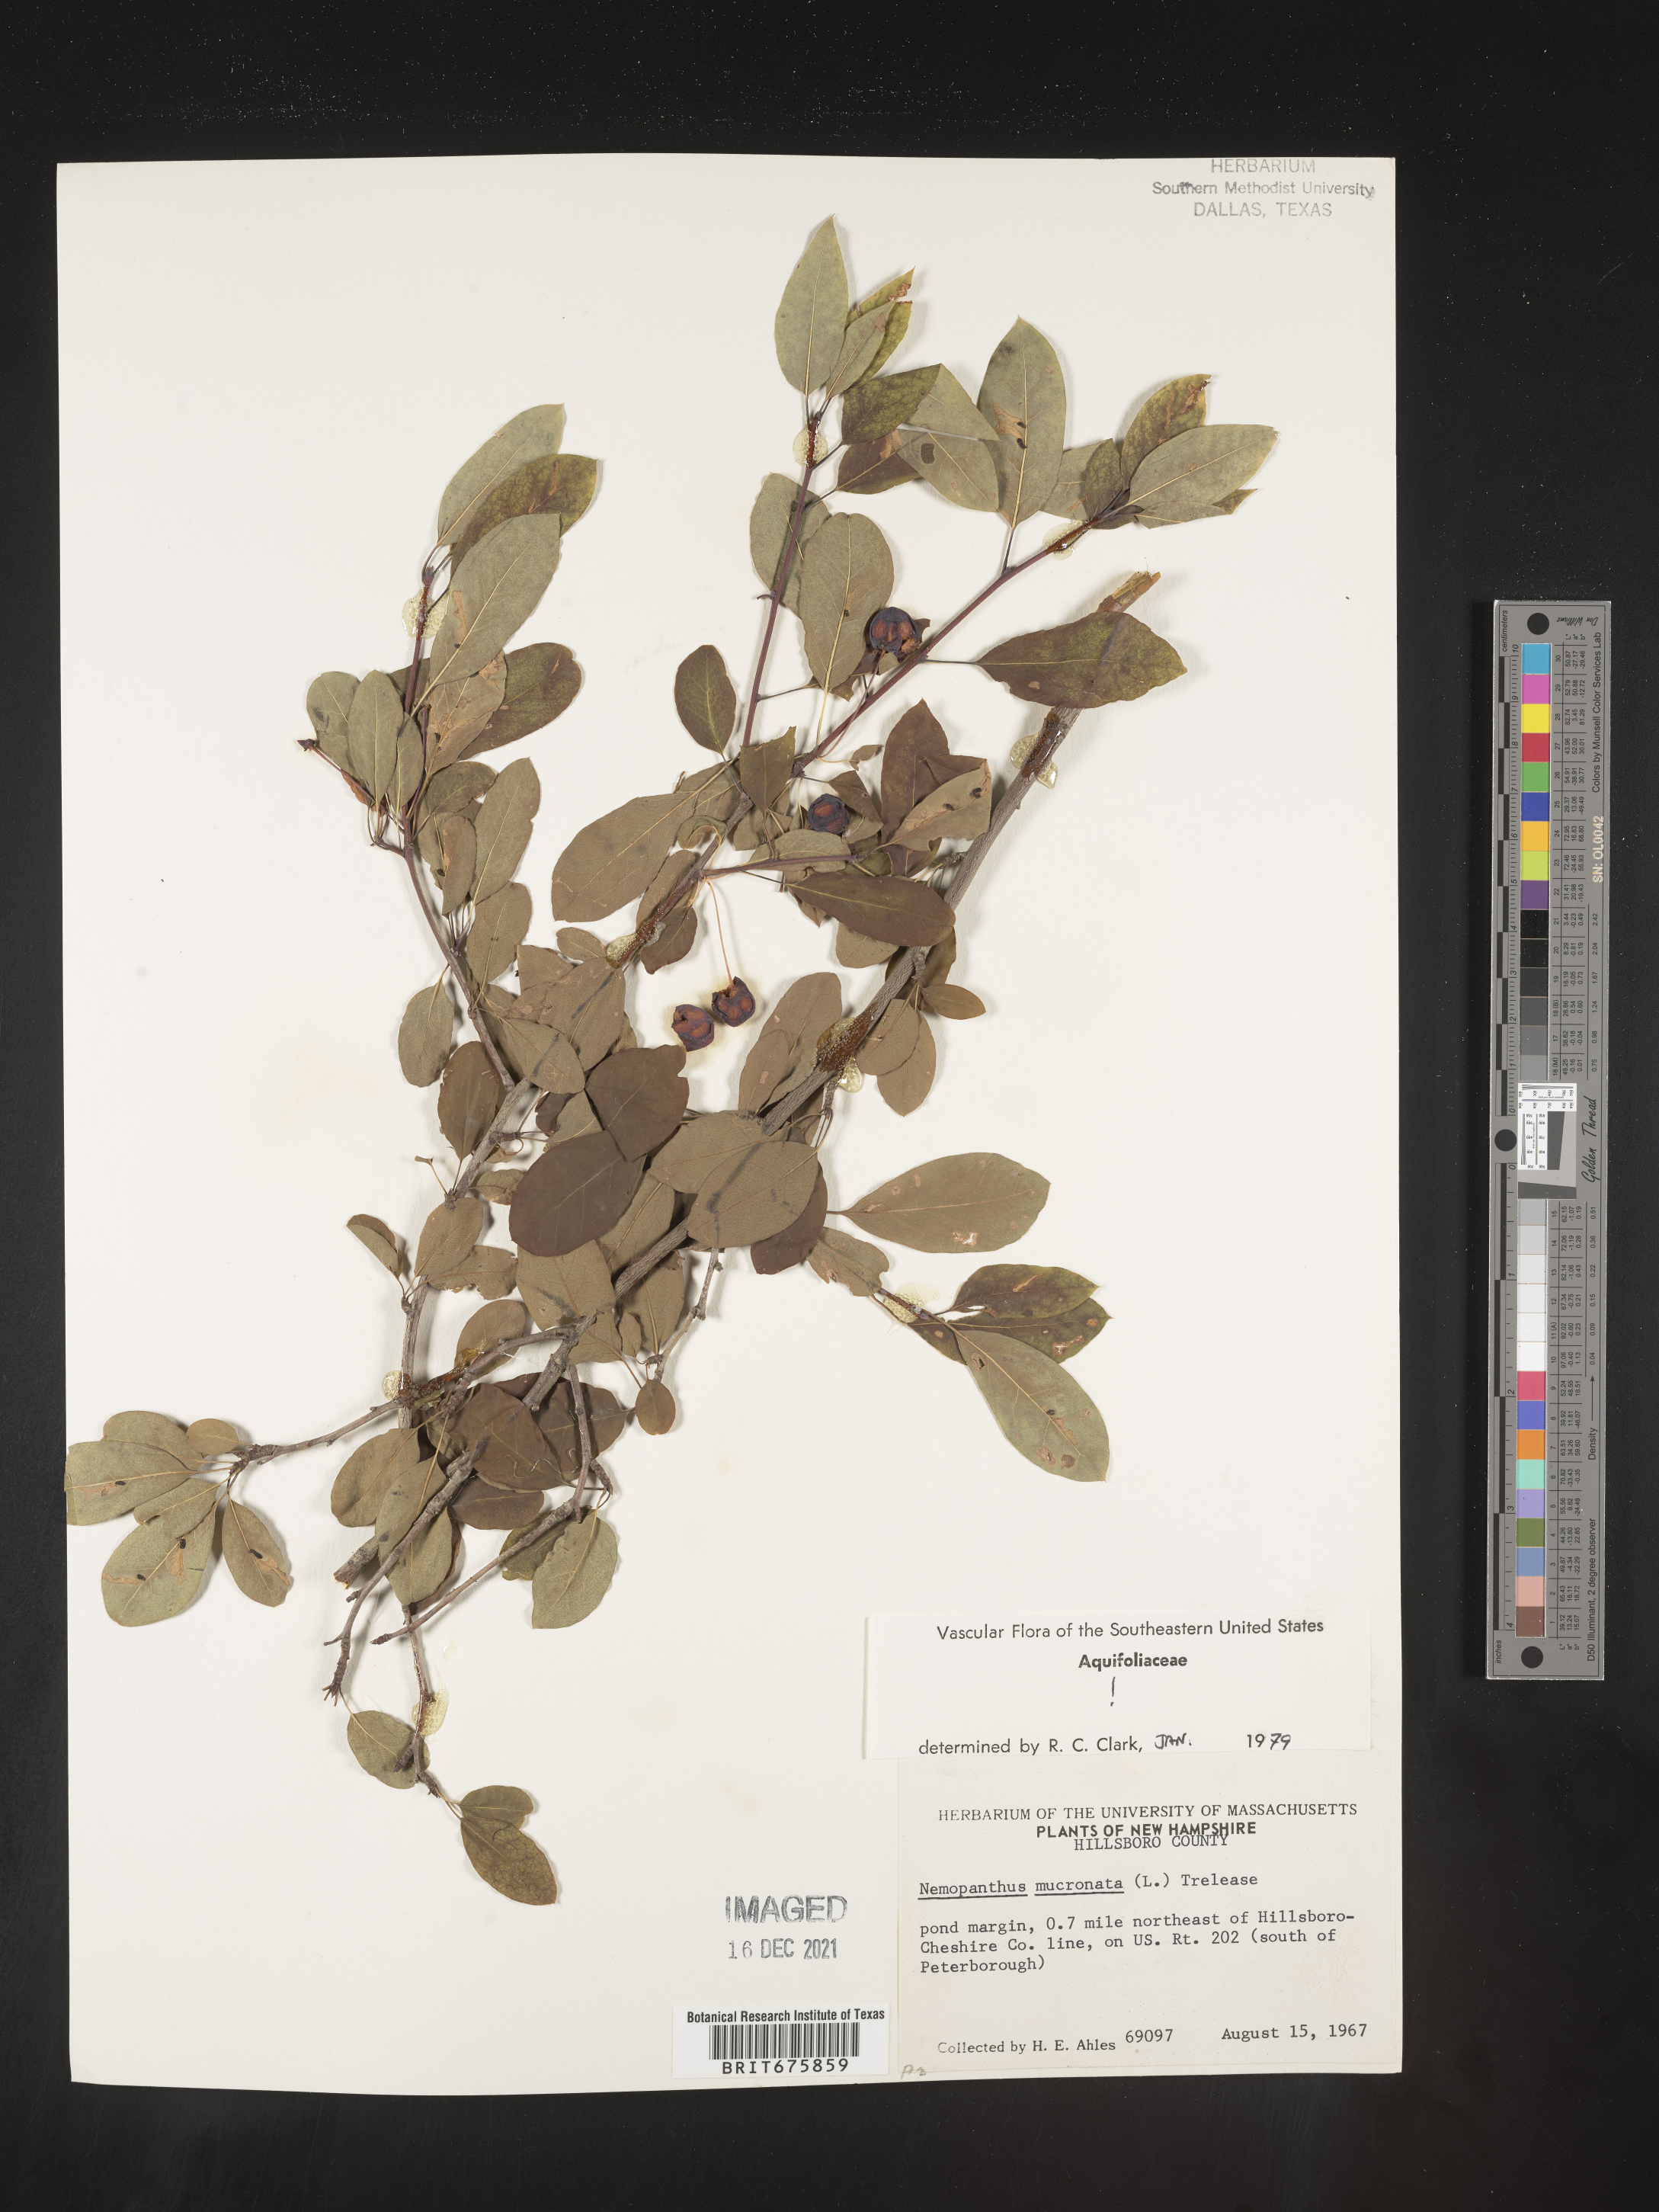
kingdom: Plantae
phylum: Tracheophyta
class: Magnoliopsida
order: Aquifoliales
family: Aquifoliaceae
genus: Ilex
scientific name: Ilex mucronata
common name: Catberry
